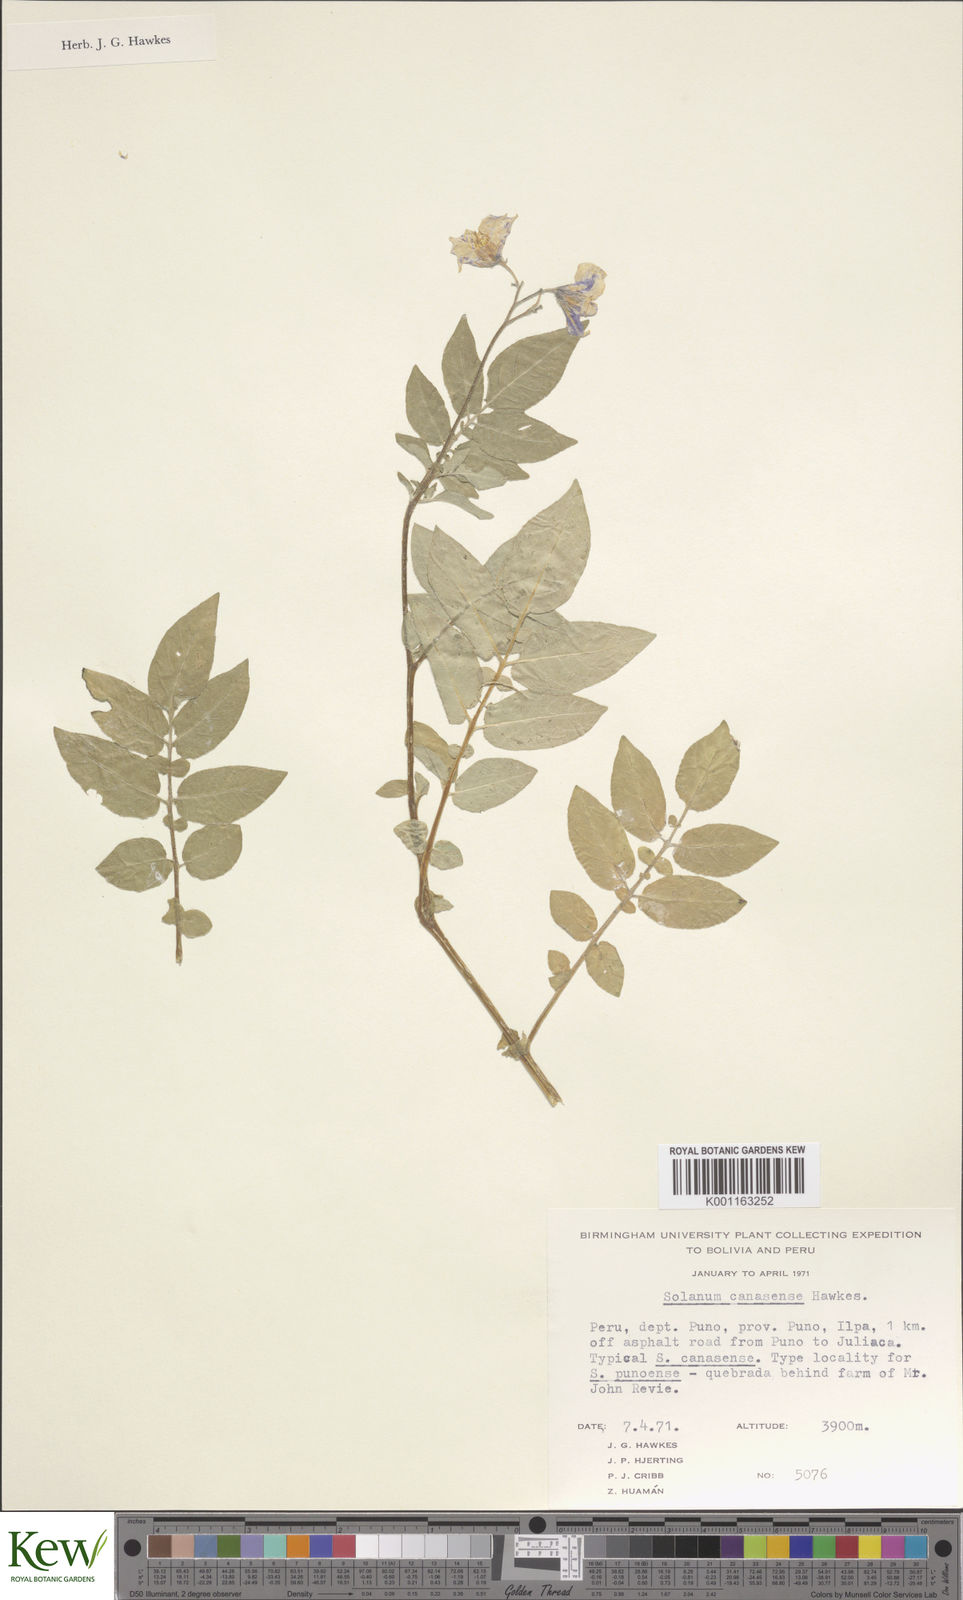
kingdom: Plantae
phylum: Tracheophyta
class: Magnoliopsida
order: Solanales
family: Solanaceae
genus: Solanum
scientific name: Solanum candolleanum
